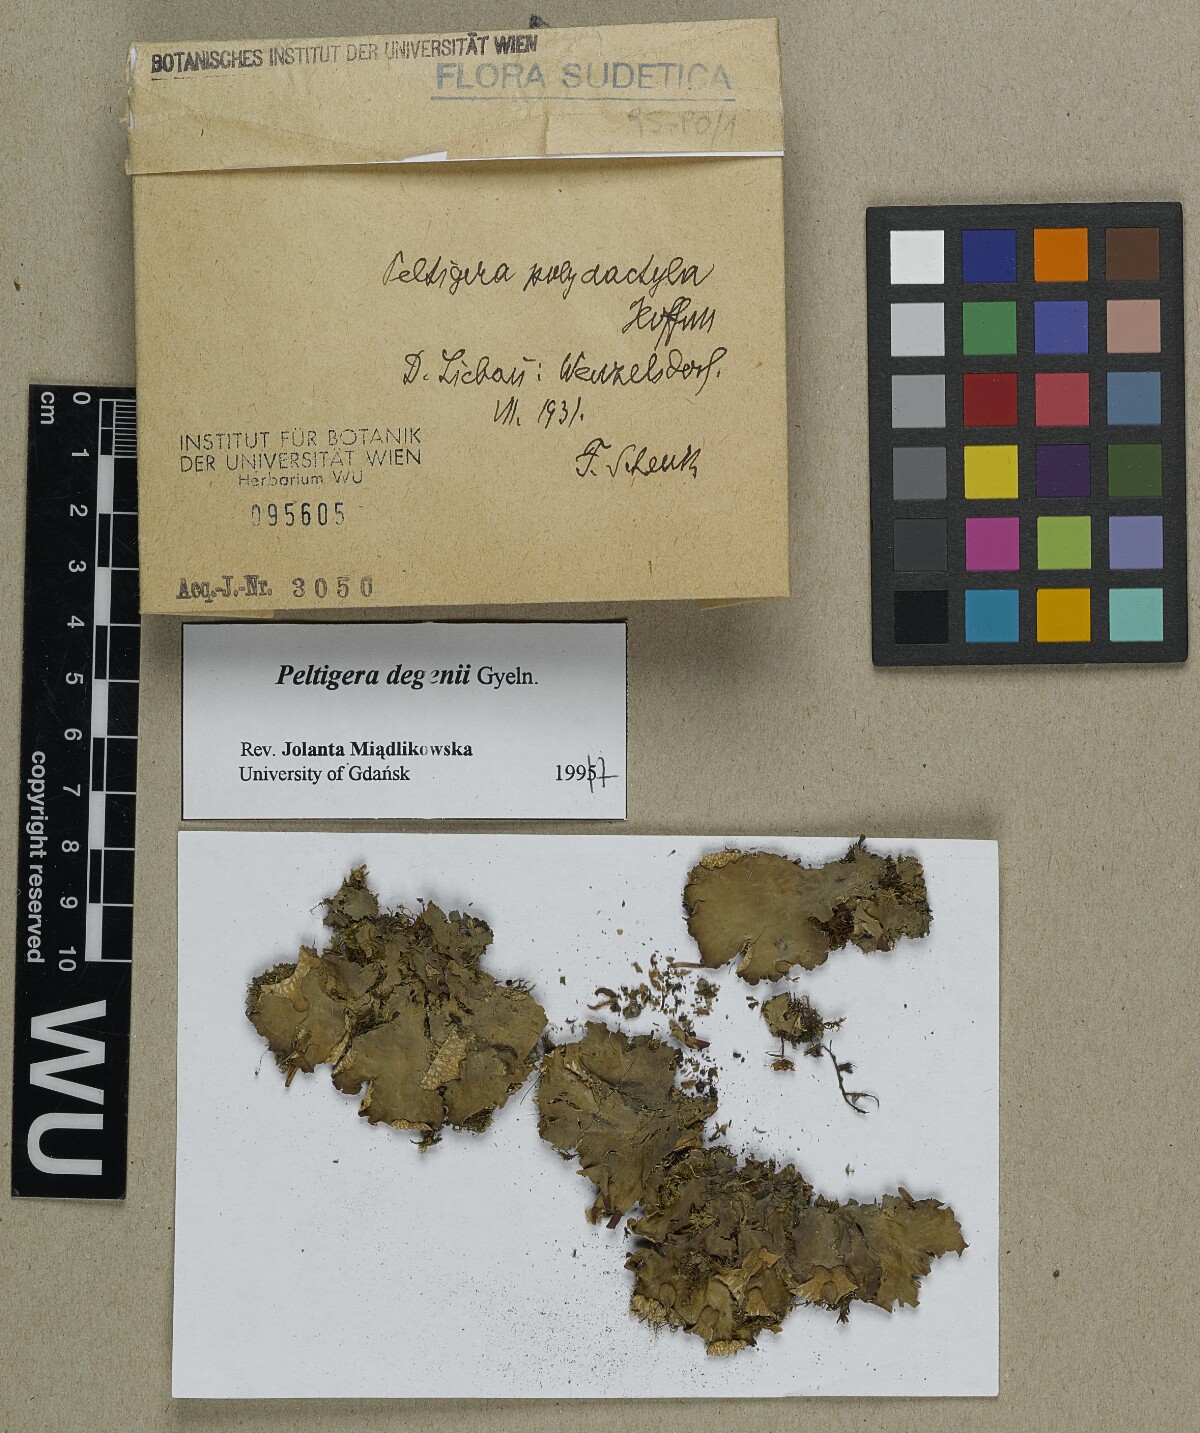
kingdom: Fungi
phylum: Ascomycota
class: Lecanoromycetes
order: Peltigerales
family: Peltigeraceae
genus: Peltigera
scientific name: Peltigera degenii
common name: Frog pelt lichen
